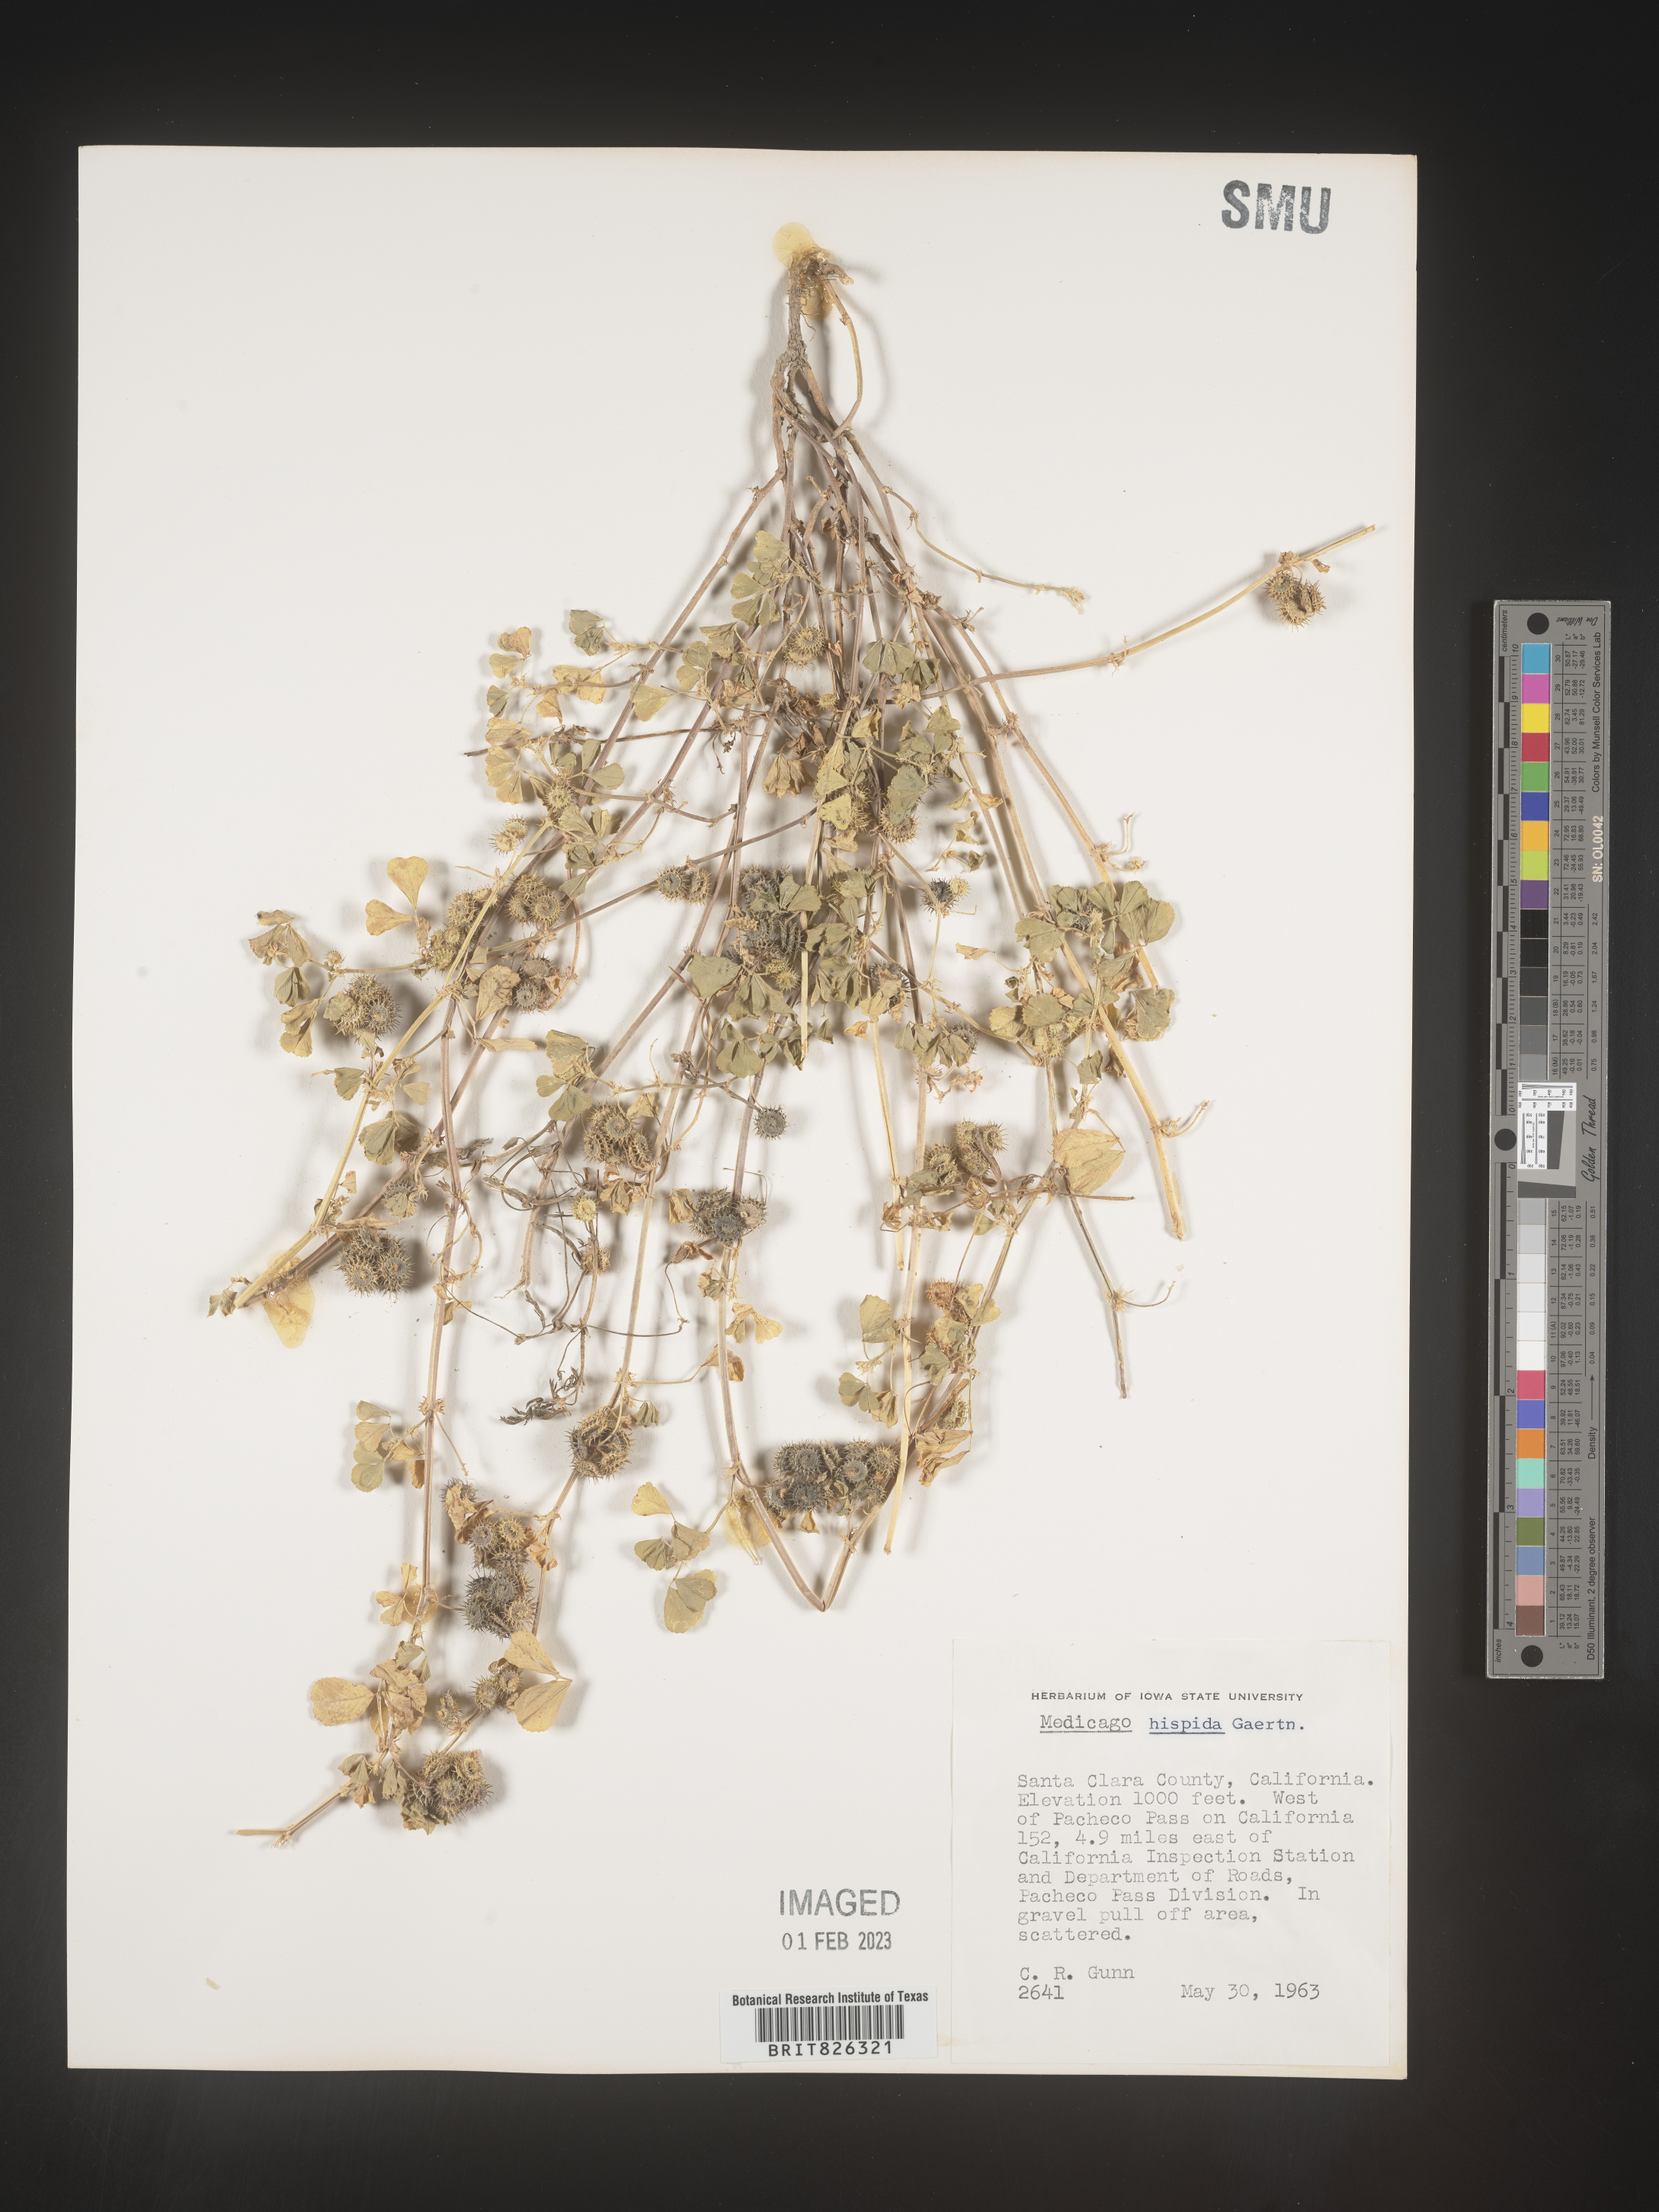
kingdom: Plantae
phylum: Tracheophyta
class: Magnoliopsida
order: Fabales
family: Fabaceae
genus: Medicago
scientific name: Medicago polymorpha
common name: Burclover
